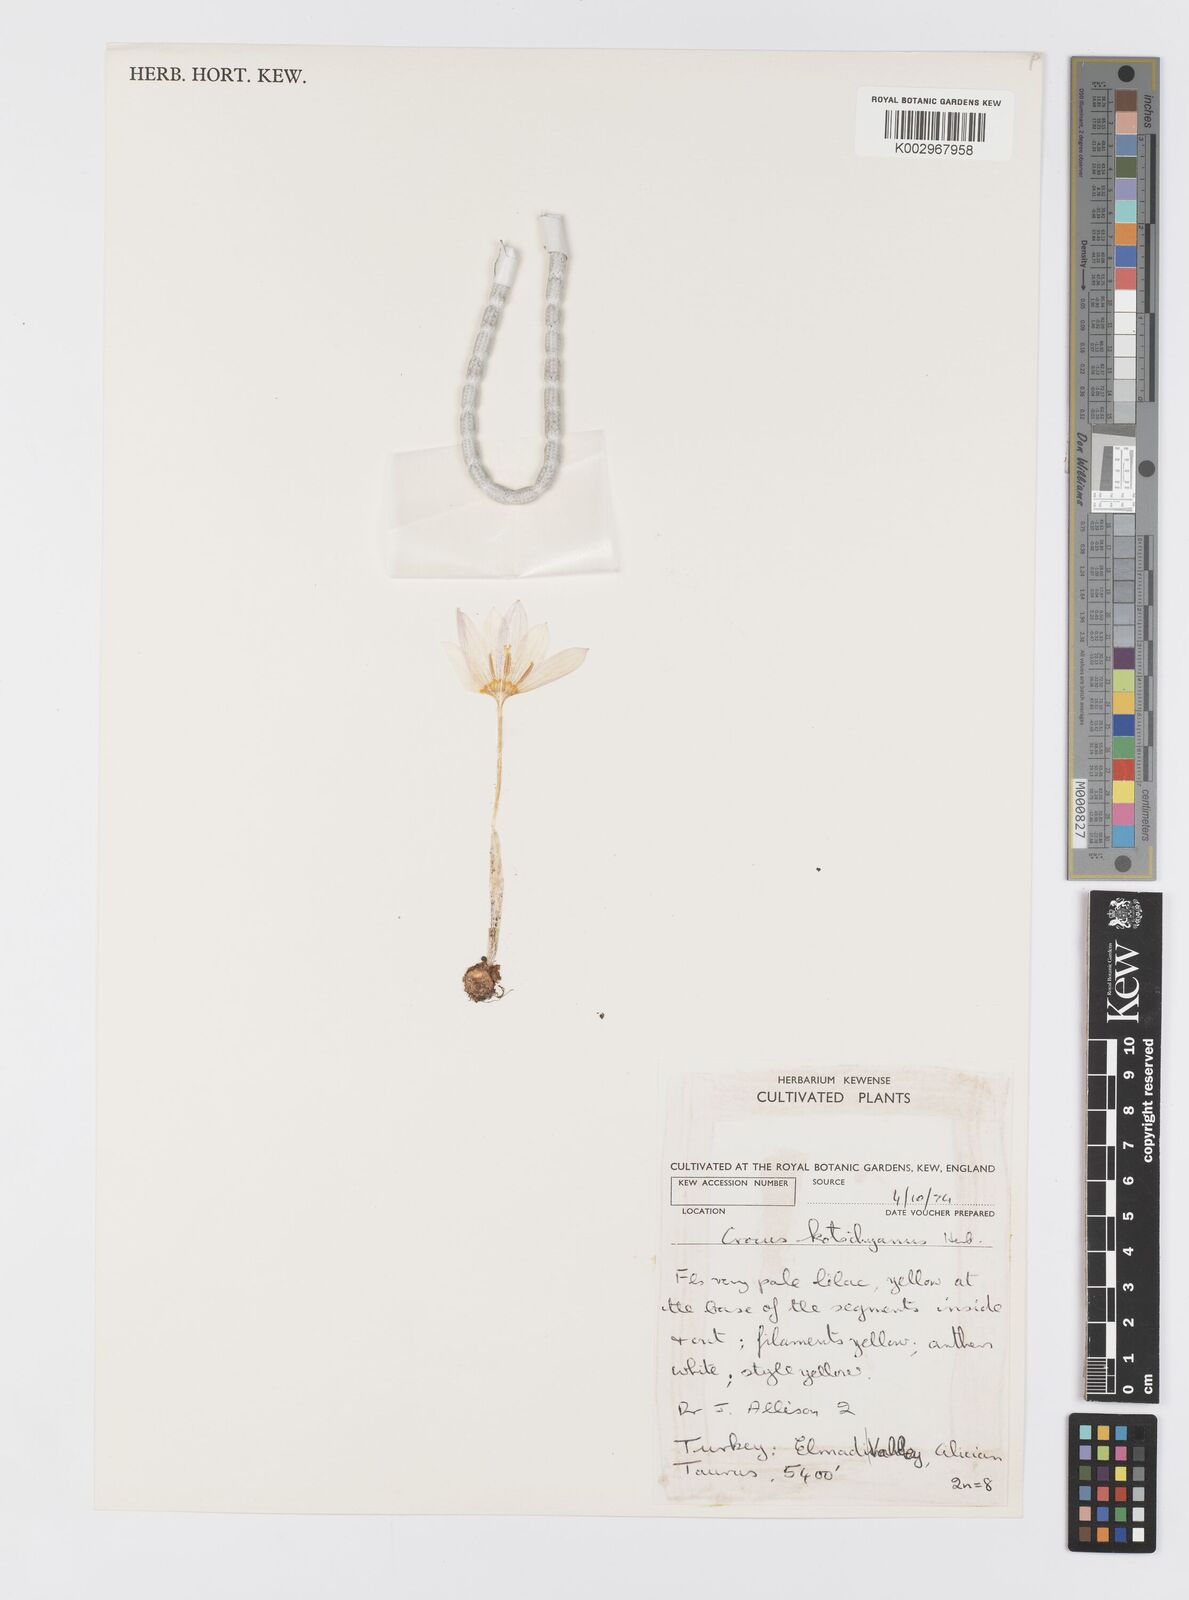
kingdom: Plantae
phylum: Tracheophyta
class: Liliopsida
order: Asparagales
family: Iridaceae
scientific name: Iridaceae
